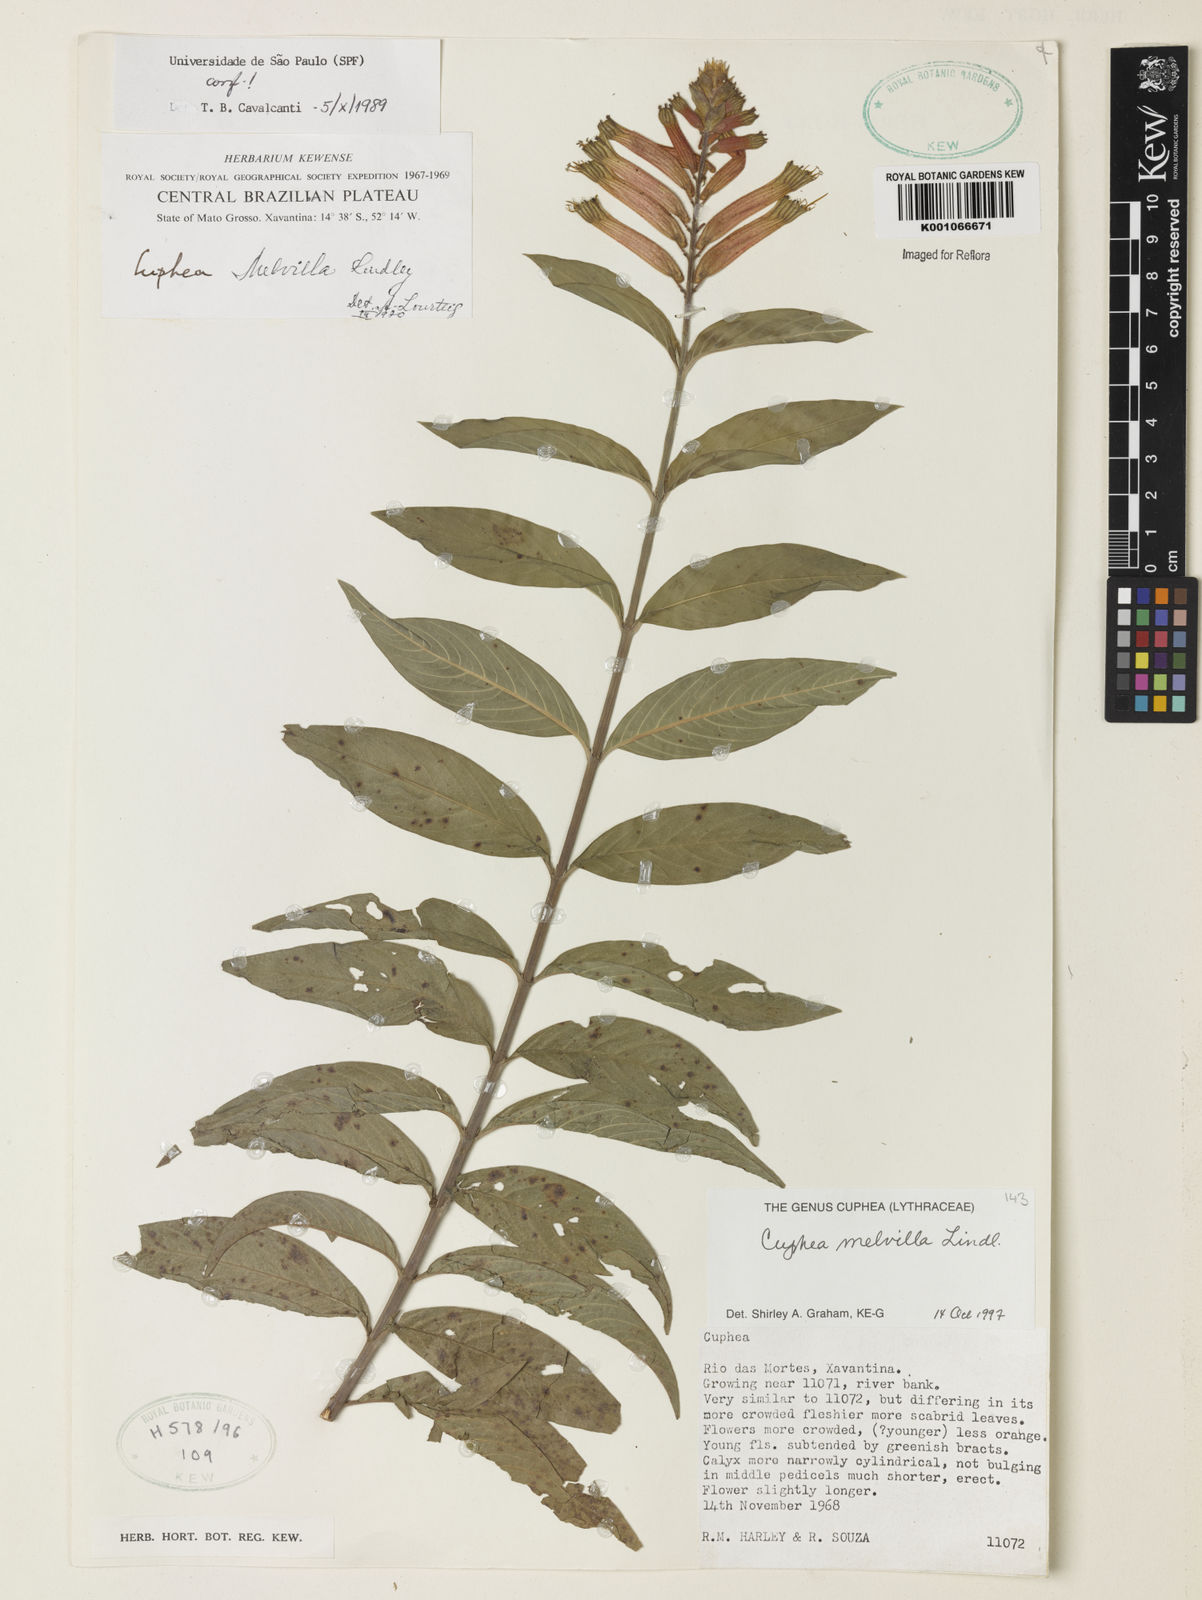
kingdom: Plantae
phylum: Tracheophyta
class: Magnoliopsida
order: Myrtales
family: Lythraceae
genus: Cuphea
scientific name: Cuphea melvilla
